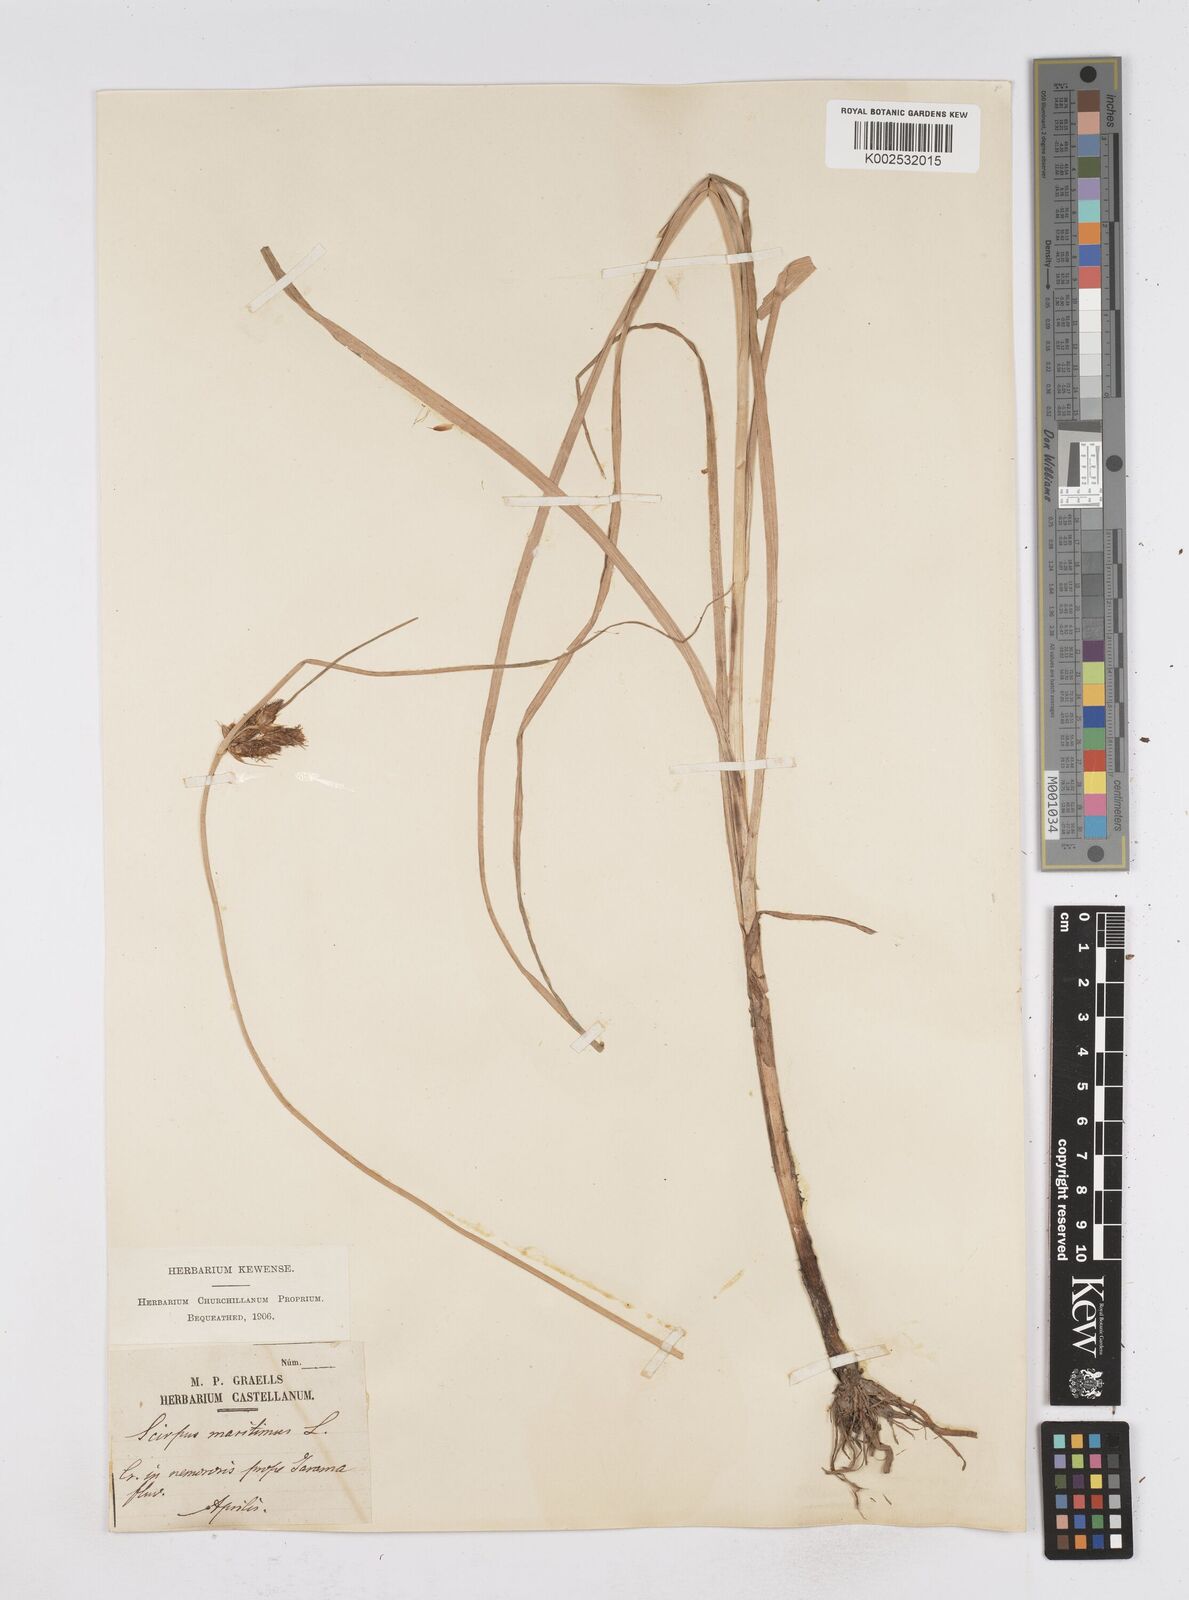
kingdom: Plantae
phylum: Tracheophyta
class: Liliopsida
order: Poales
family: Cyperaceae
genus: Bolboschoenus
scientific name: Bolboschoenus maritimus
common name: Sea club-rush
